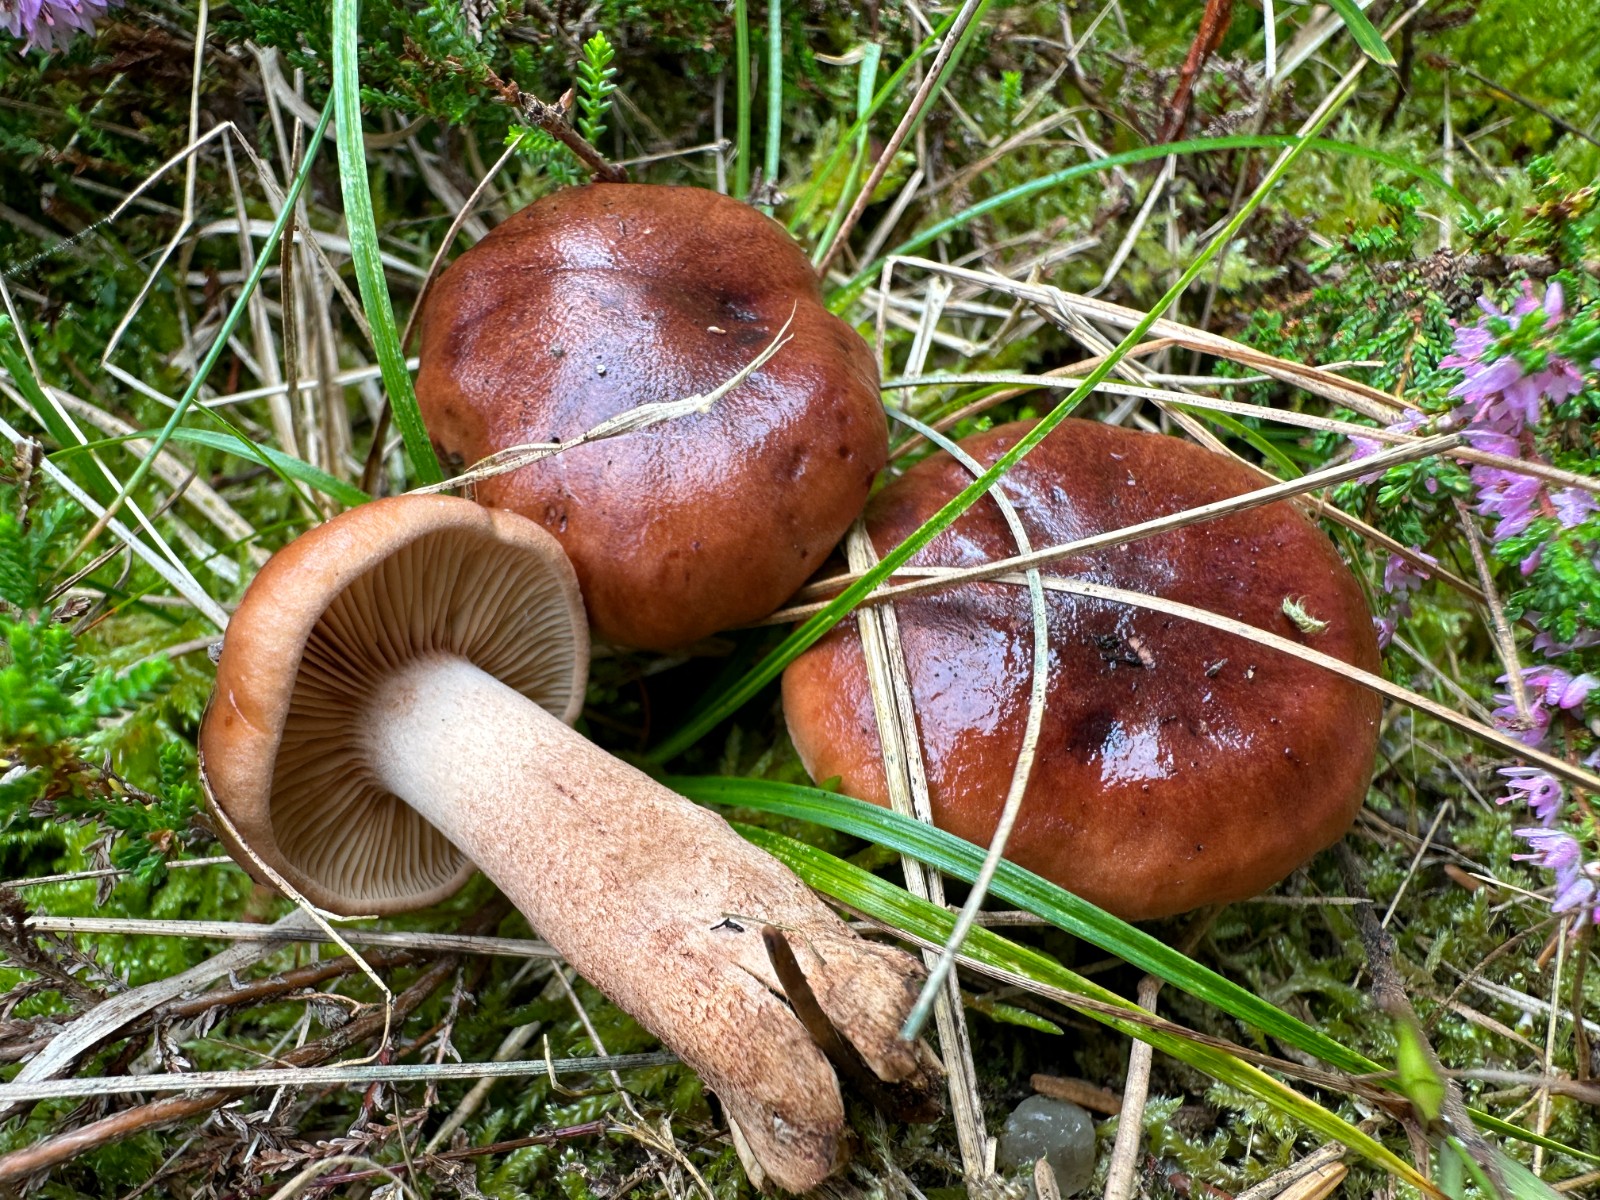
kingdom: Fungi
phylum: Basidiomycota
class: Agaricomycetes
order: Agaricales
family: Tricholomataceae
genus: Tricholoma
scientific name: Tricholoma fulvum
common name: birke-ridderhat
